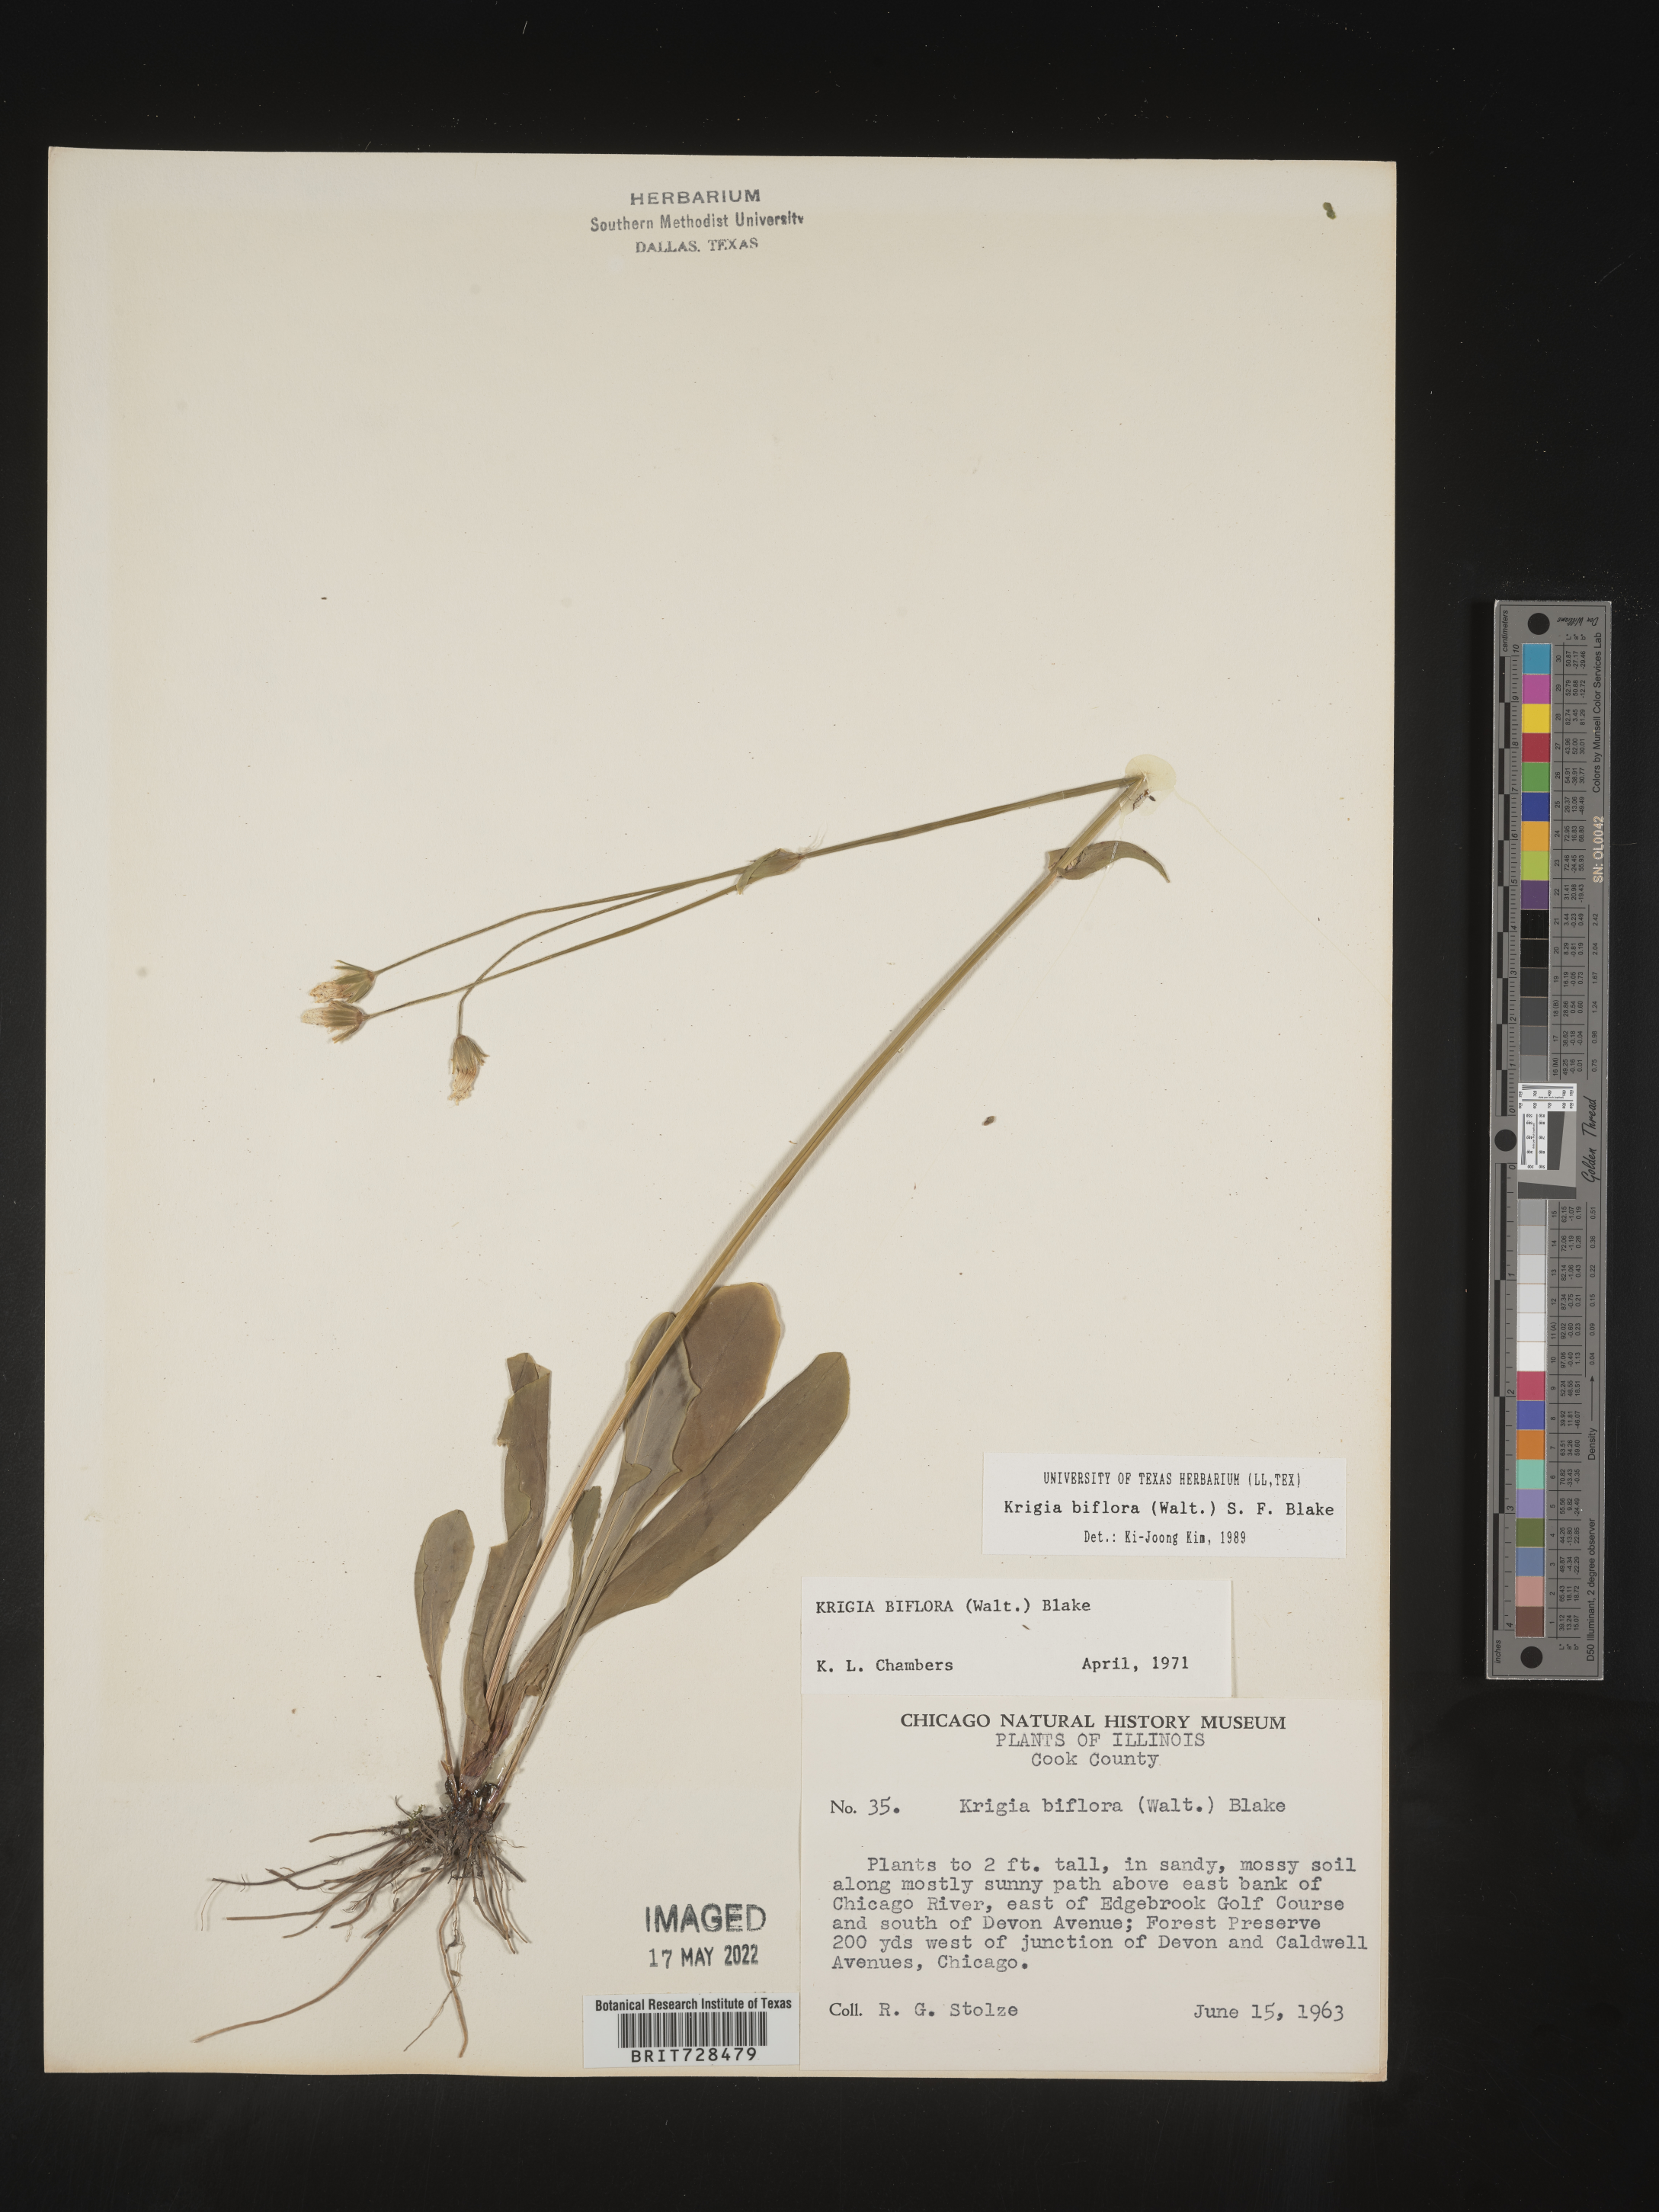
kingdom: Plantae
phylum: Tracheophyta
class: Magnoliopsida
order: Asterales
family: Asteraceae
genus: Krigia
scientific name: Krigia biflora
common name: Orange dwarf-dandelion
